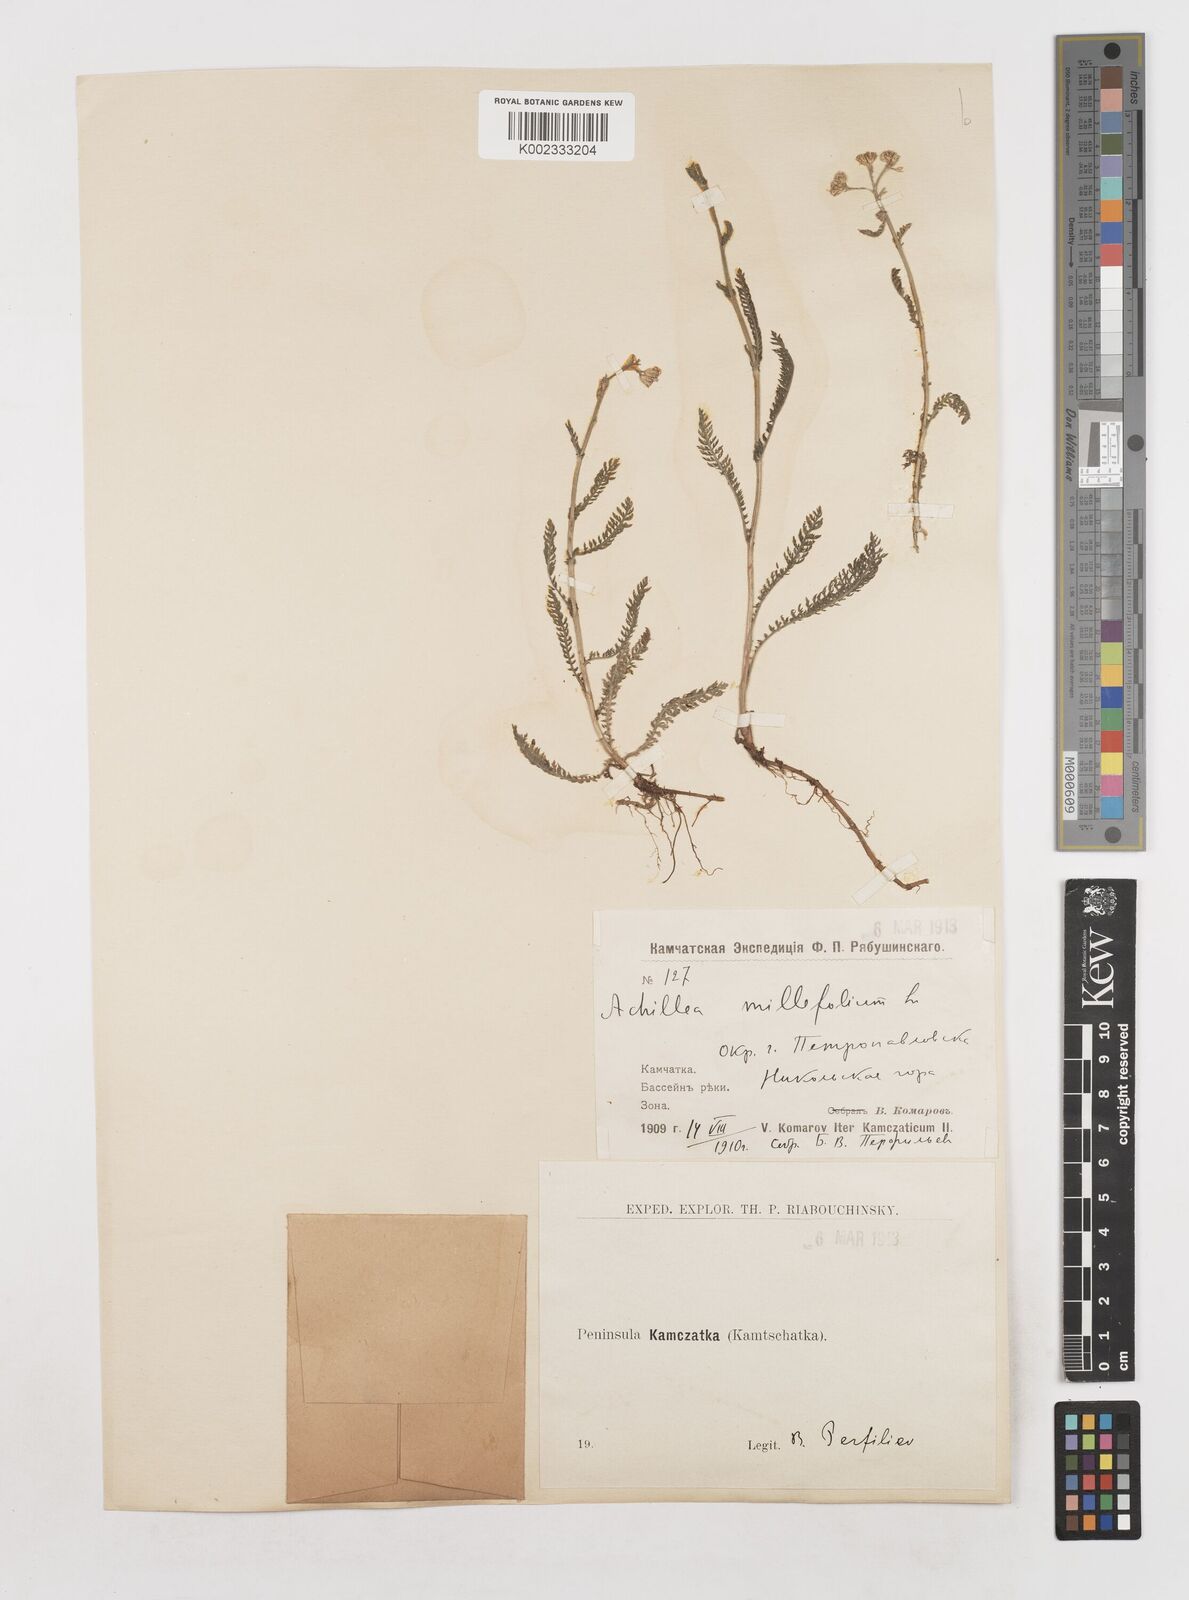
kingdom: Plantae
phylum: Tracheophyta
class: Magnoliopsida
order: Asterales
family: Asteraceae
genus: Achillea
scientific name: Achillea millefolium
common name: Yarrow
